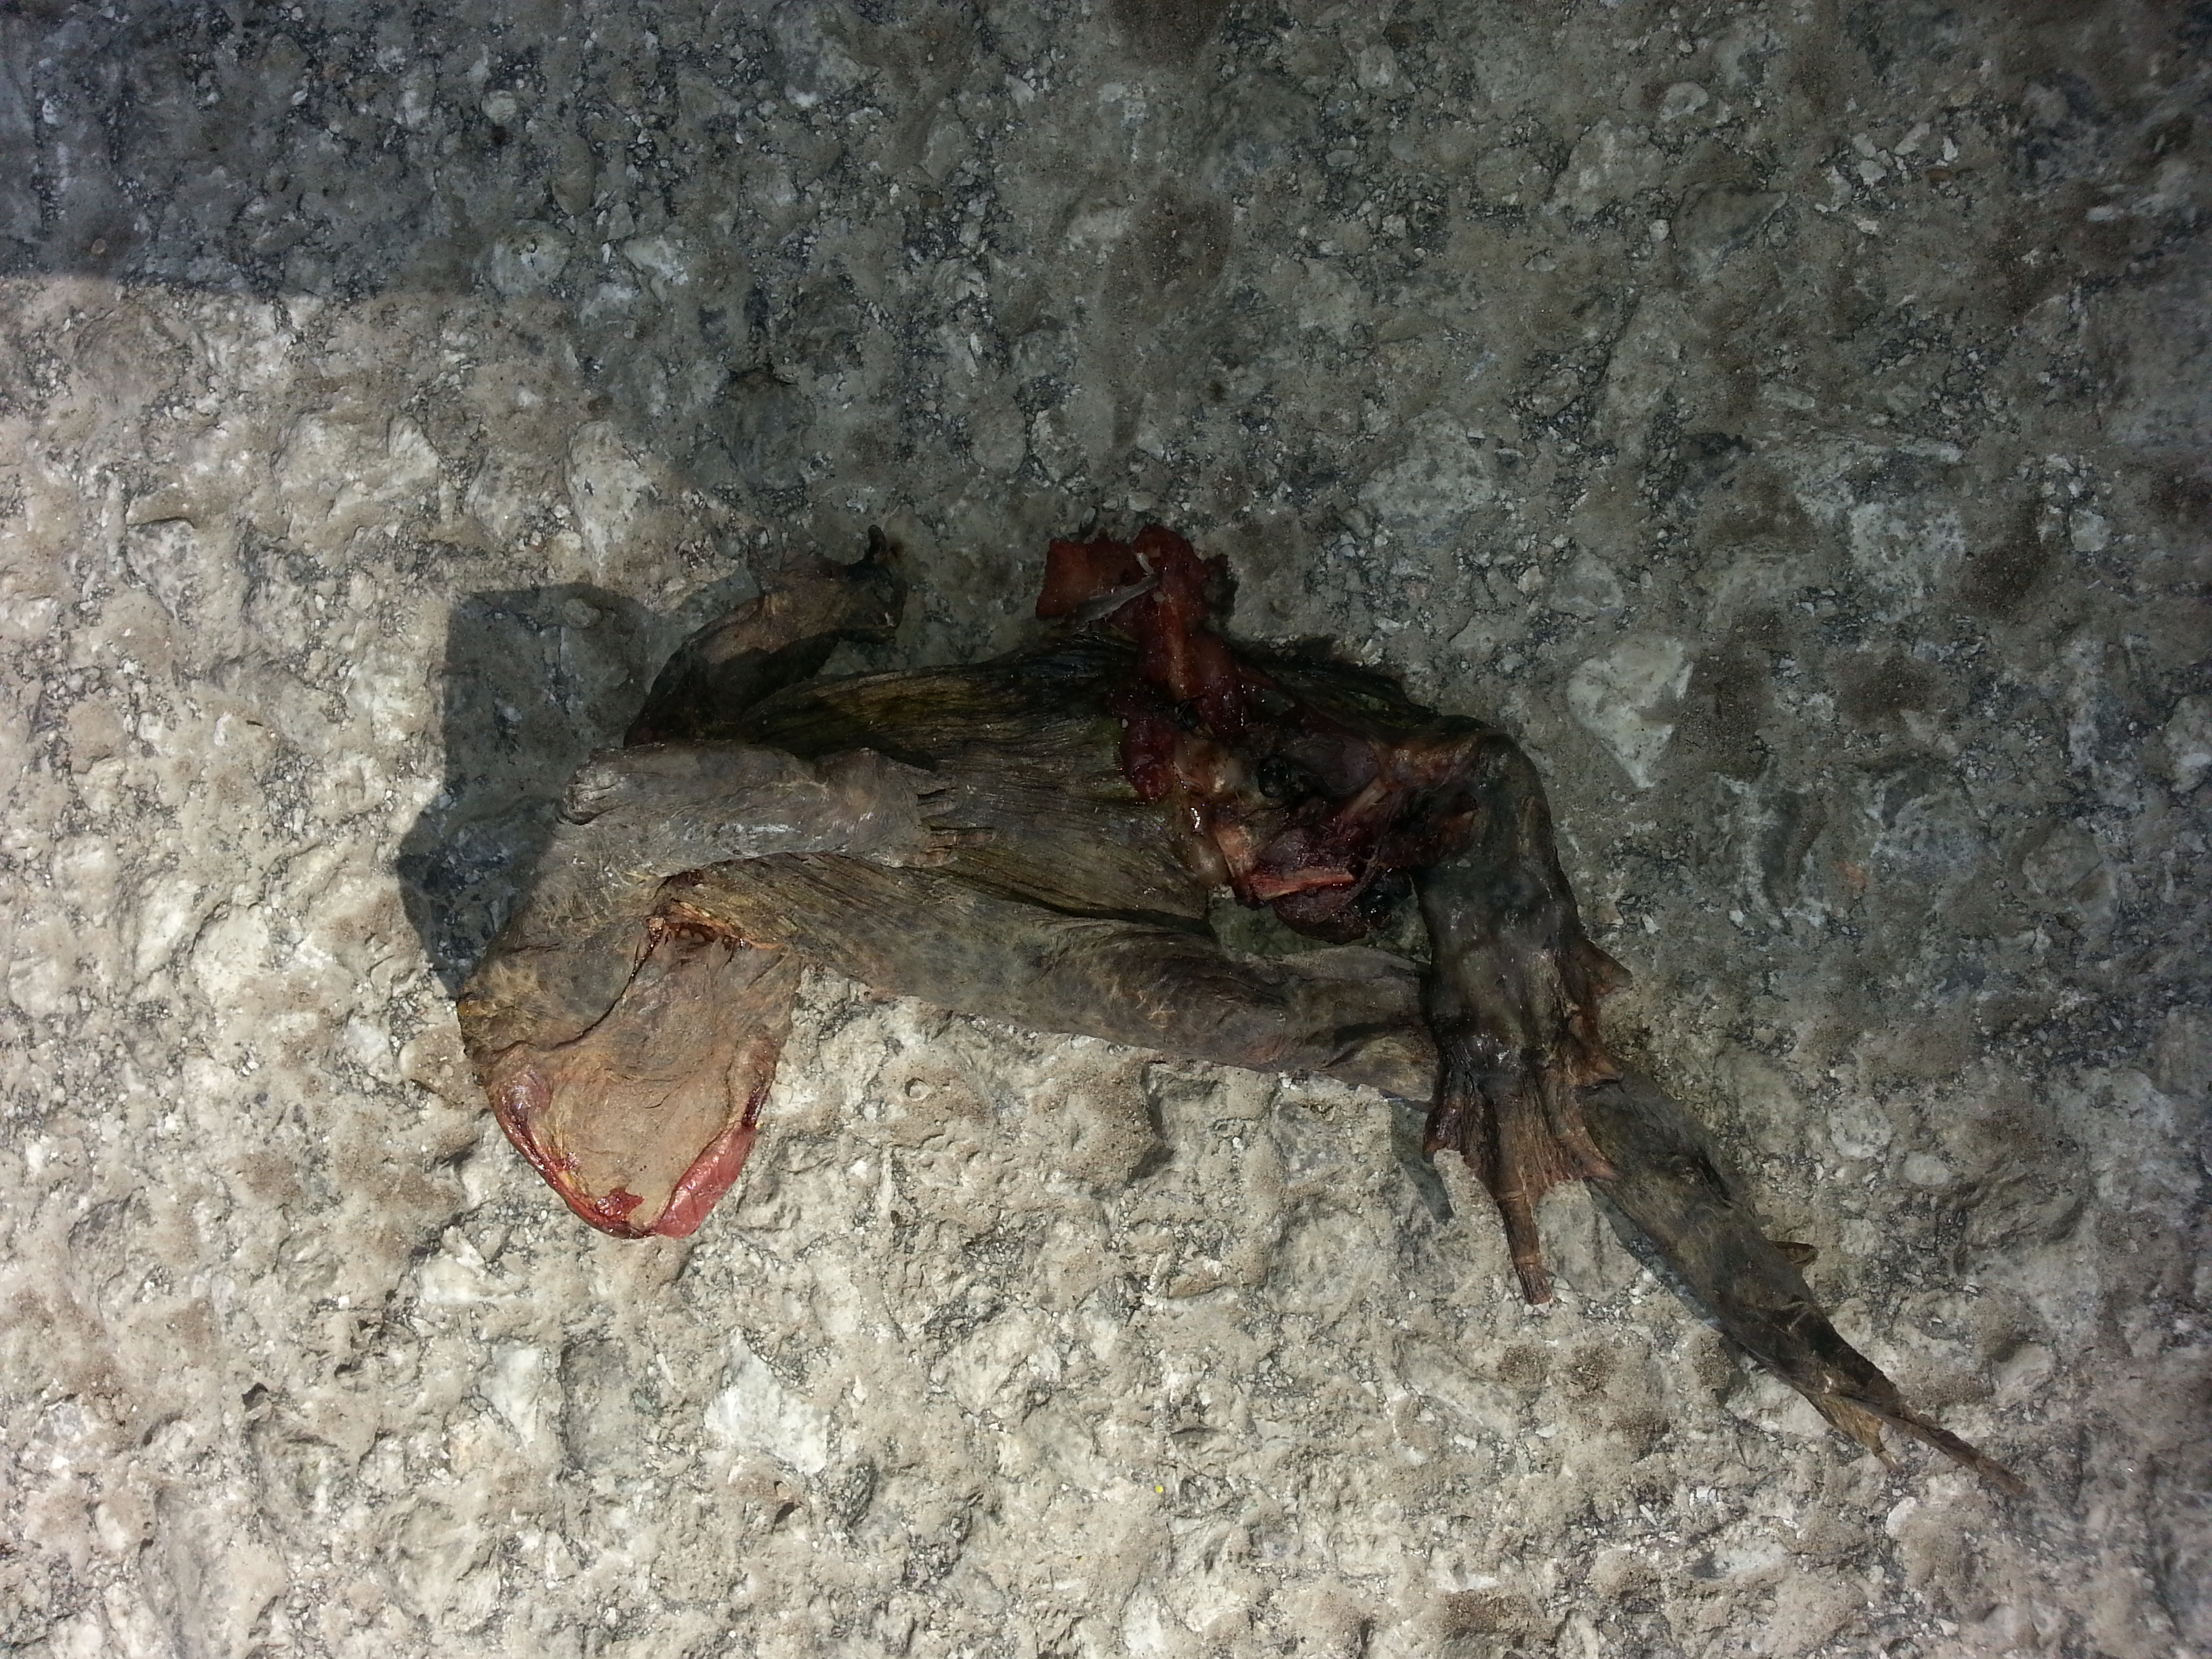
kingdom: Animalia
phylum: Chordata
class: Amphibia
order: Anura
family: Bufonidae
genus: Bufo
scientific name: Bufo bufo
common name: Common toad
